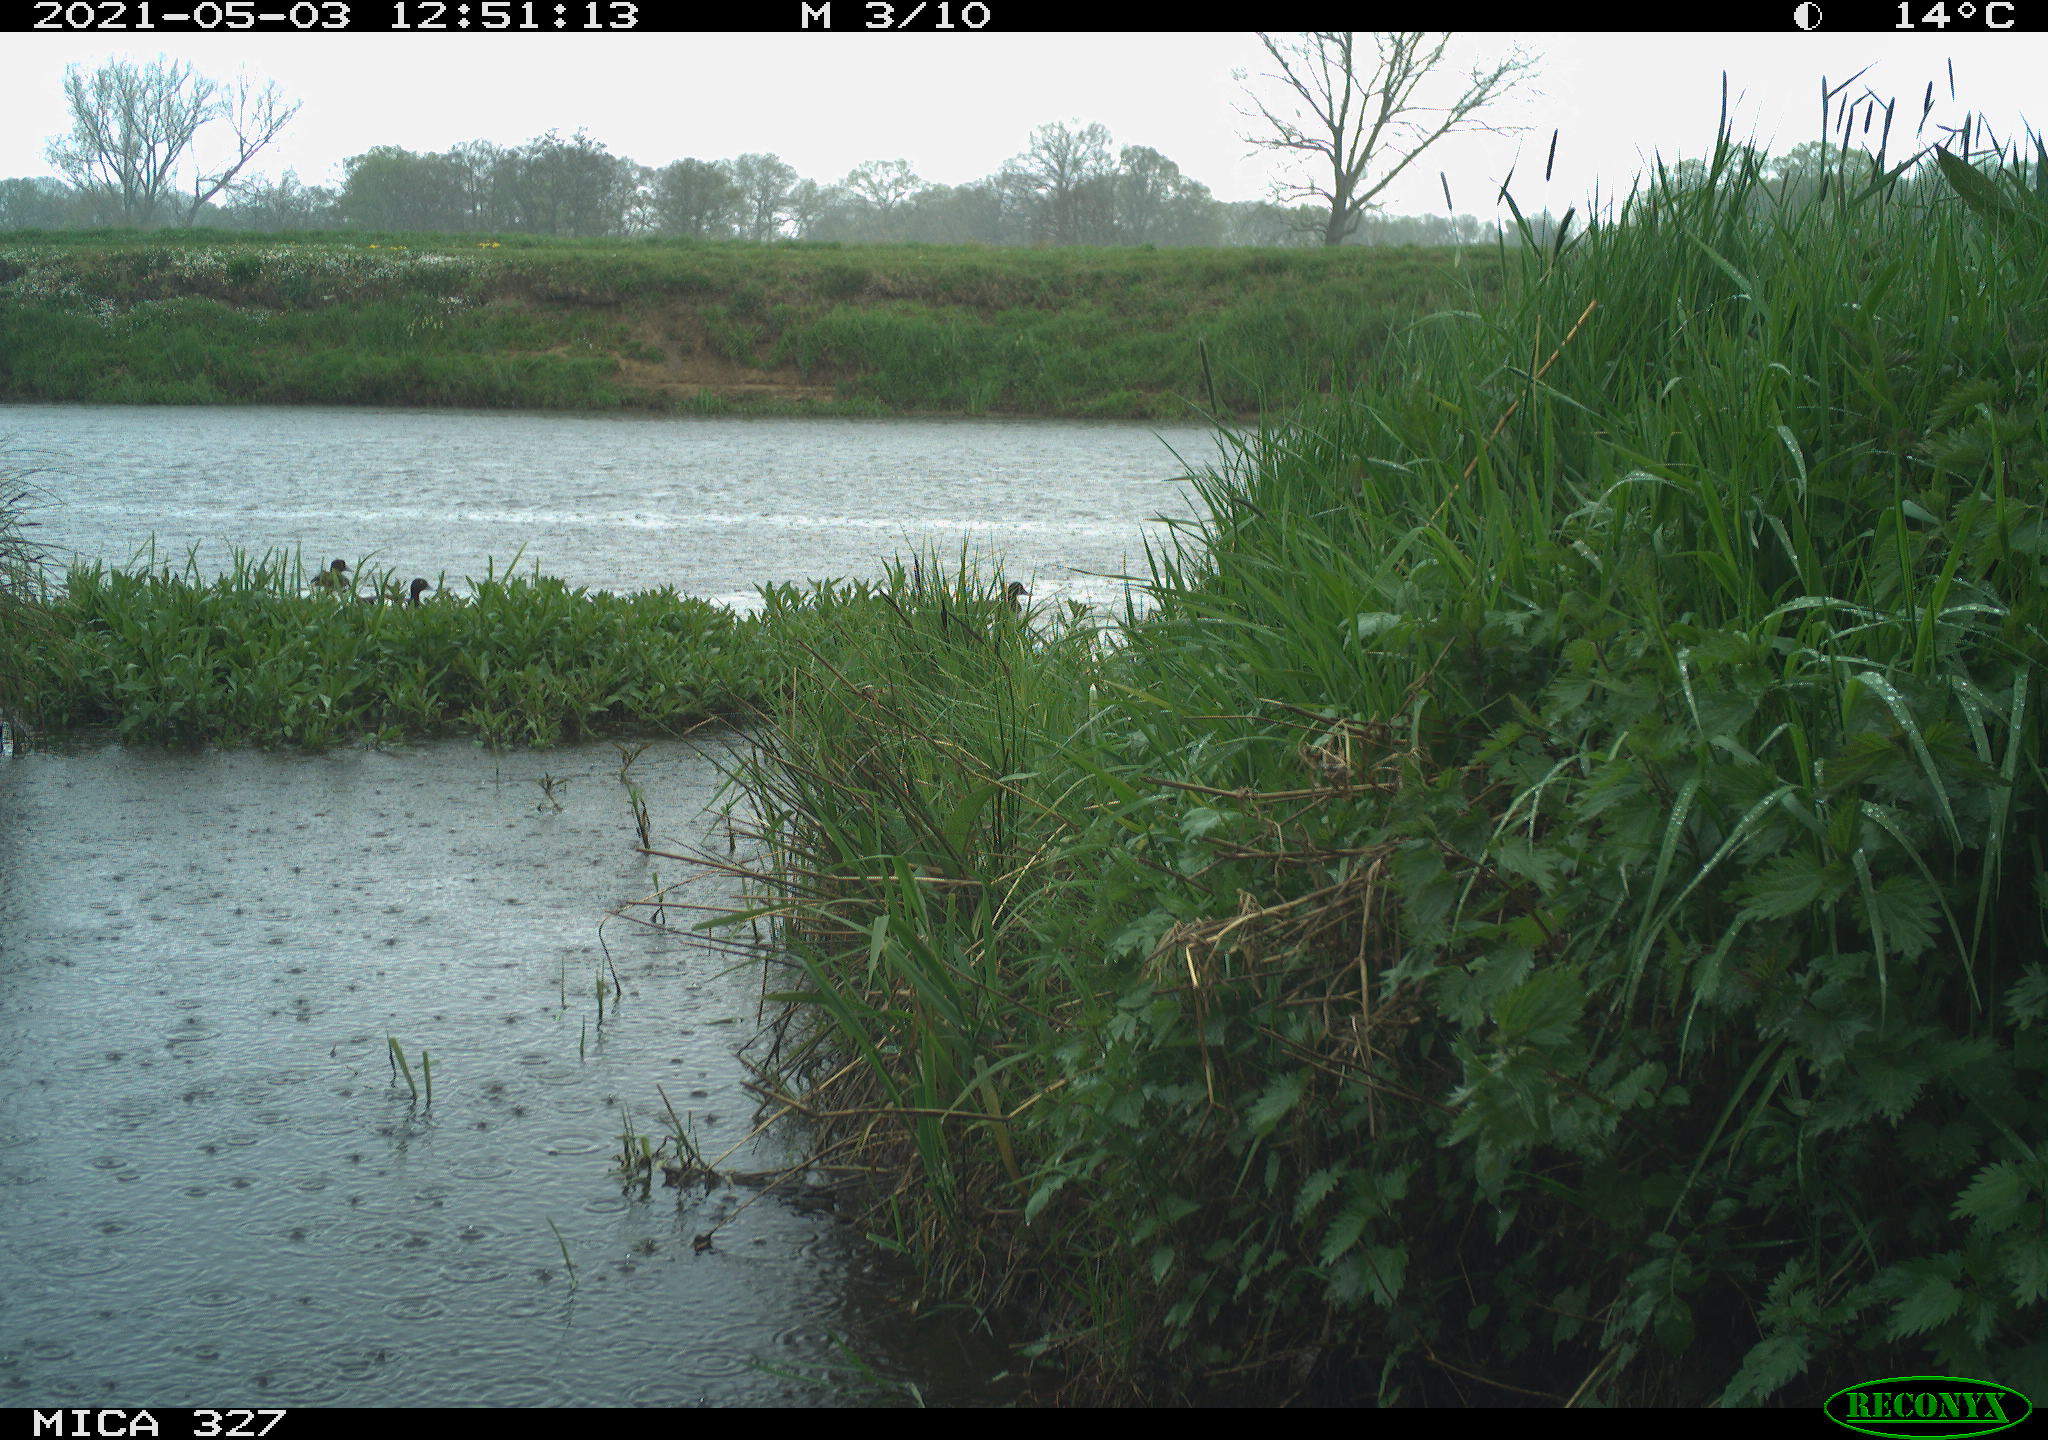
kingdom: Animalia
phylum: Chordata
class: Aves
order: Gruiformes
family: Rallidae
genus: Gallinula
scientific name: Gallinula chloropus
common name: Common moorhen
